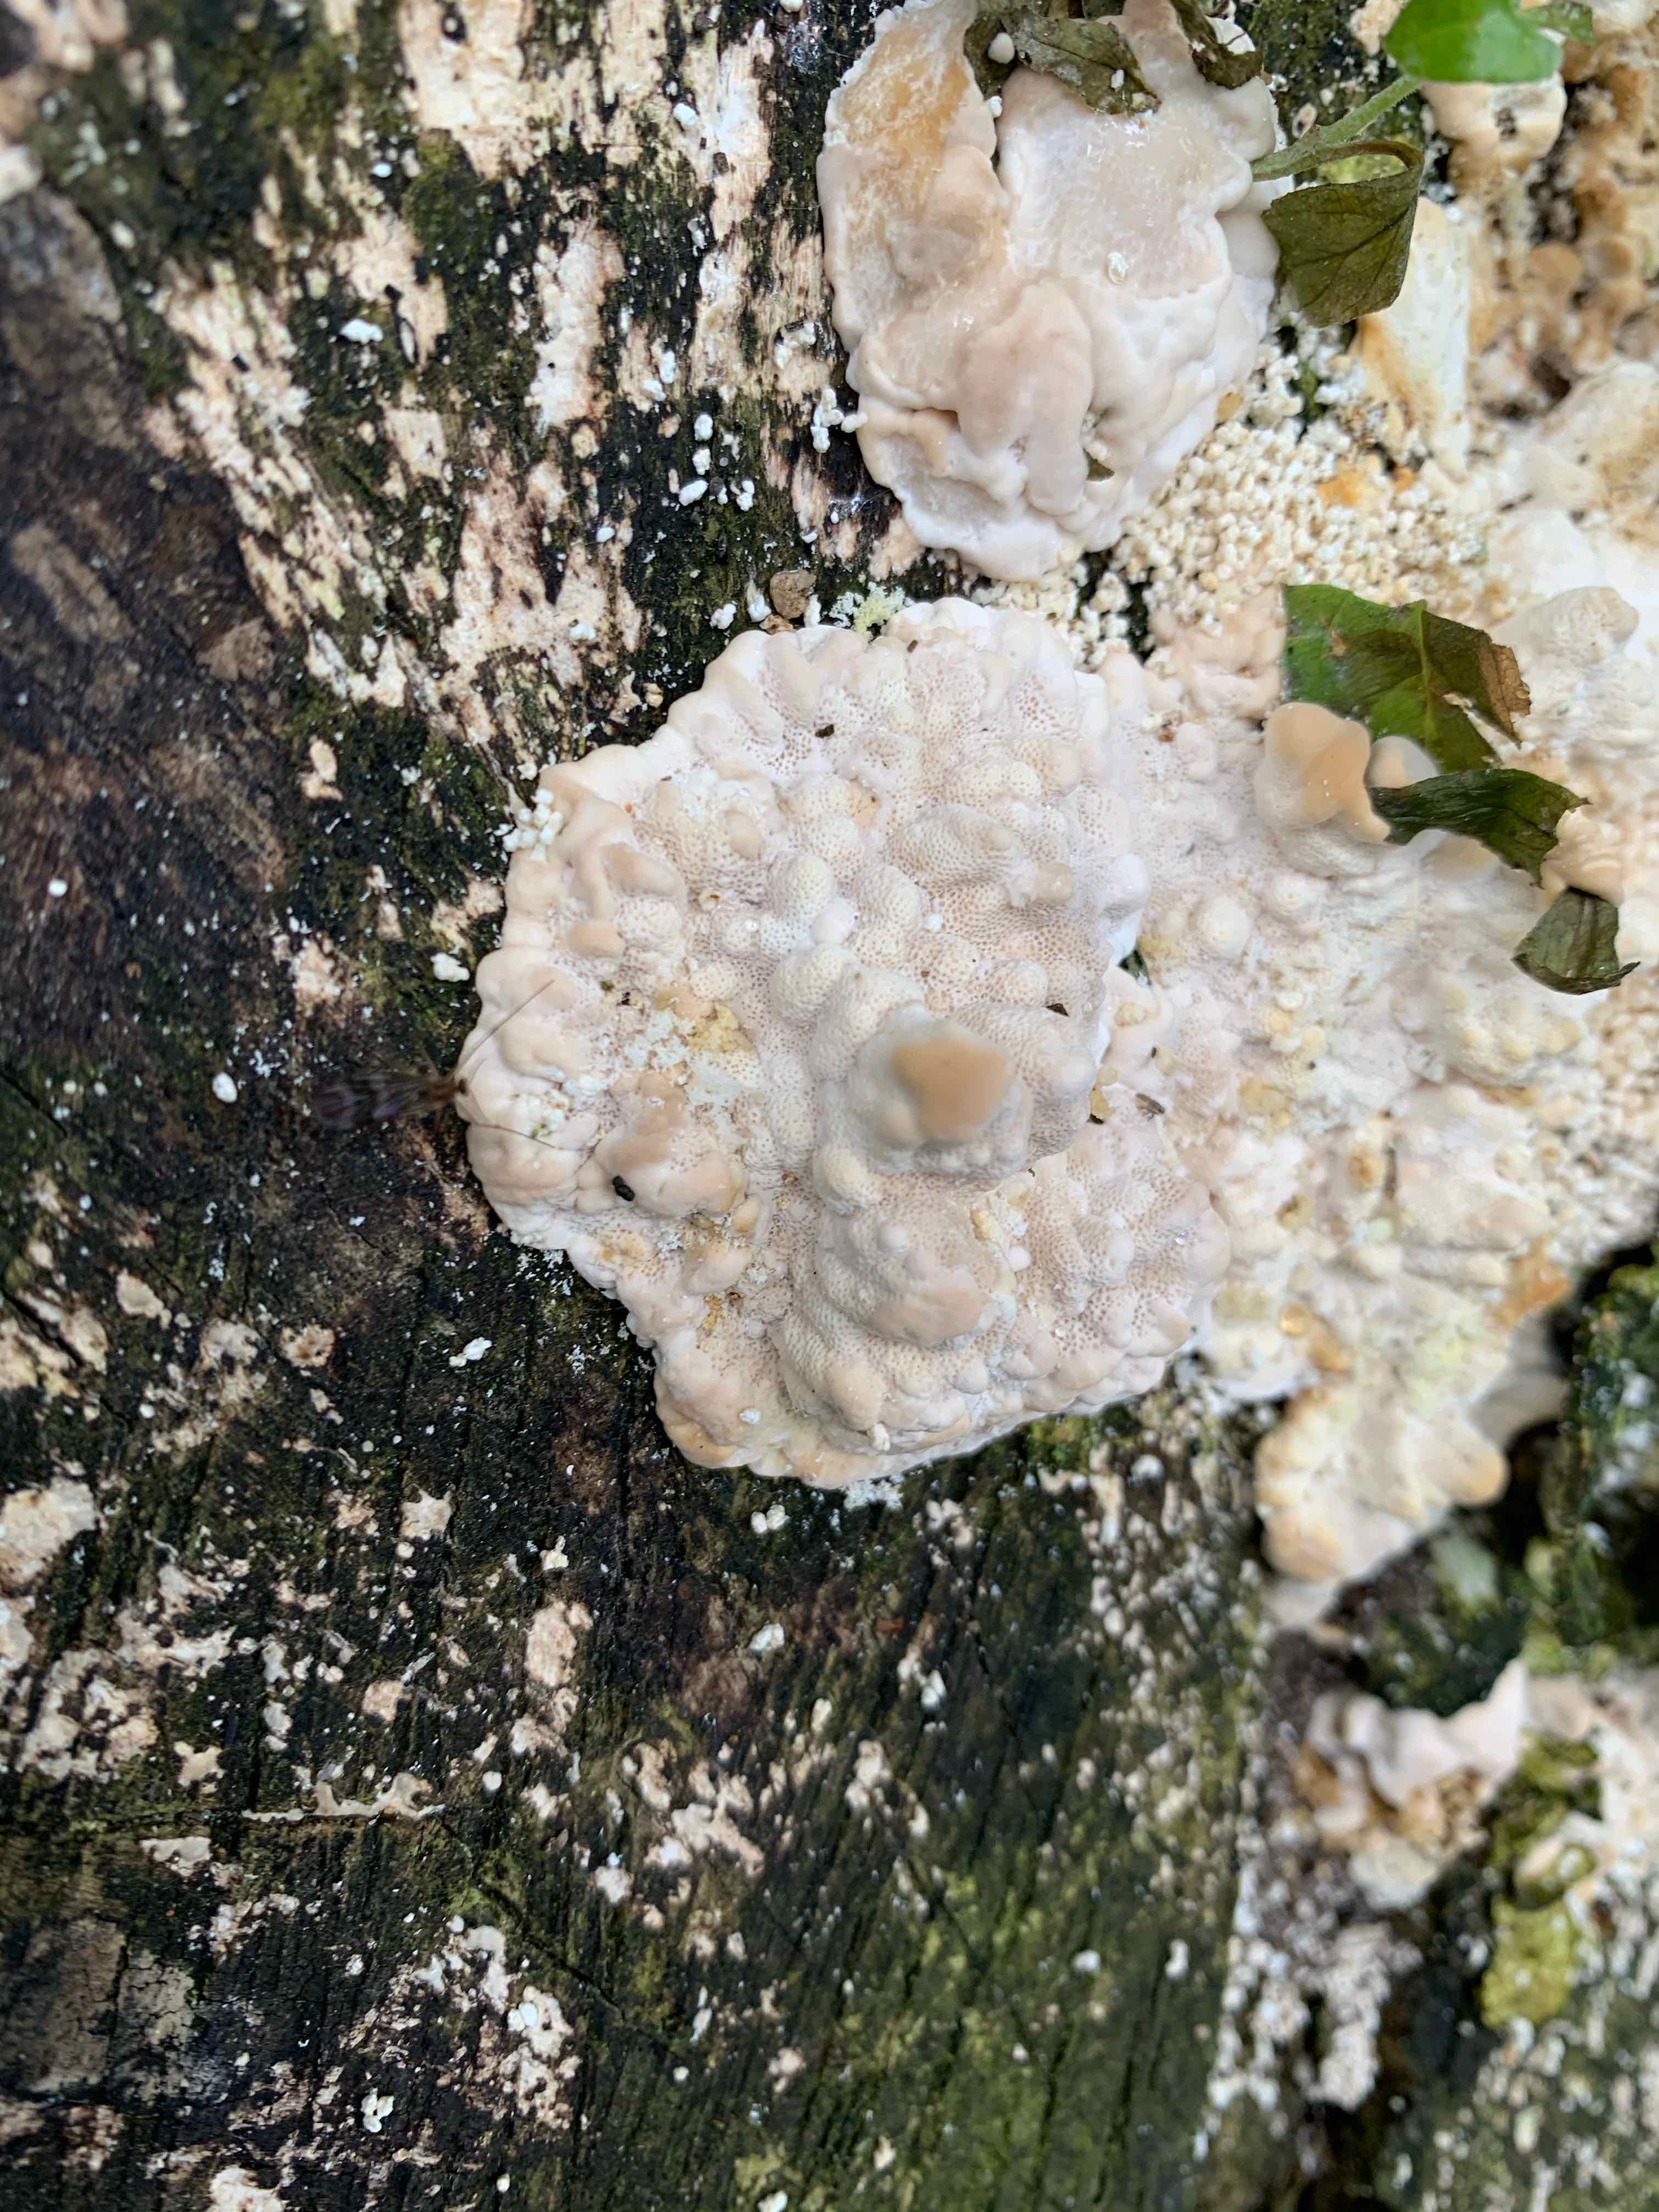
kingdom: Fungi
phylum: Basidiomycota
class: Agaricomycetes
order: Polyporales
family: Polyporaceae
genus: Trametes
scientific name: Trametes
